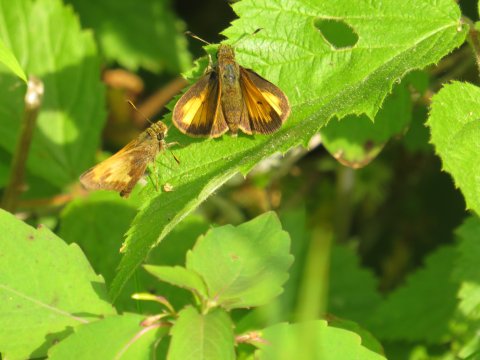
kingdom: Animalia
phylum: Arthropoda
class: Insecta
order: Lepidoptera
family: Hesperiidae
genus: Lon
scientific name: Lon hobomok
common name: Hobomok Skipper
